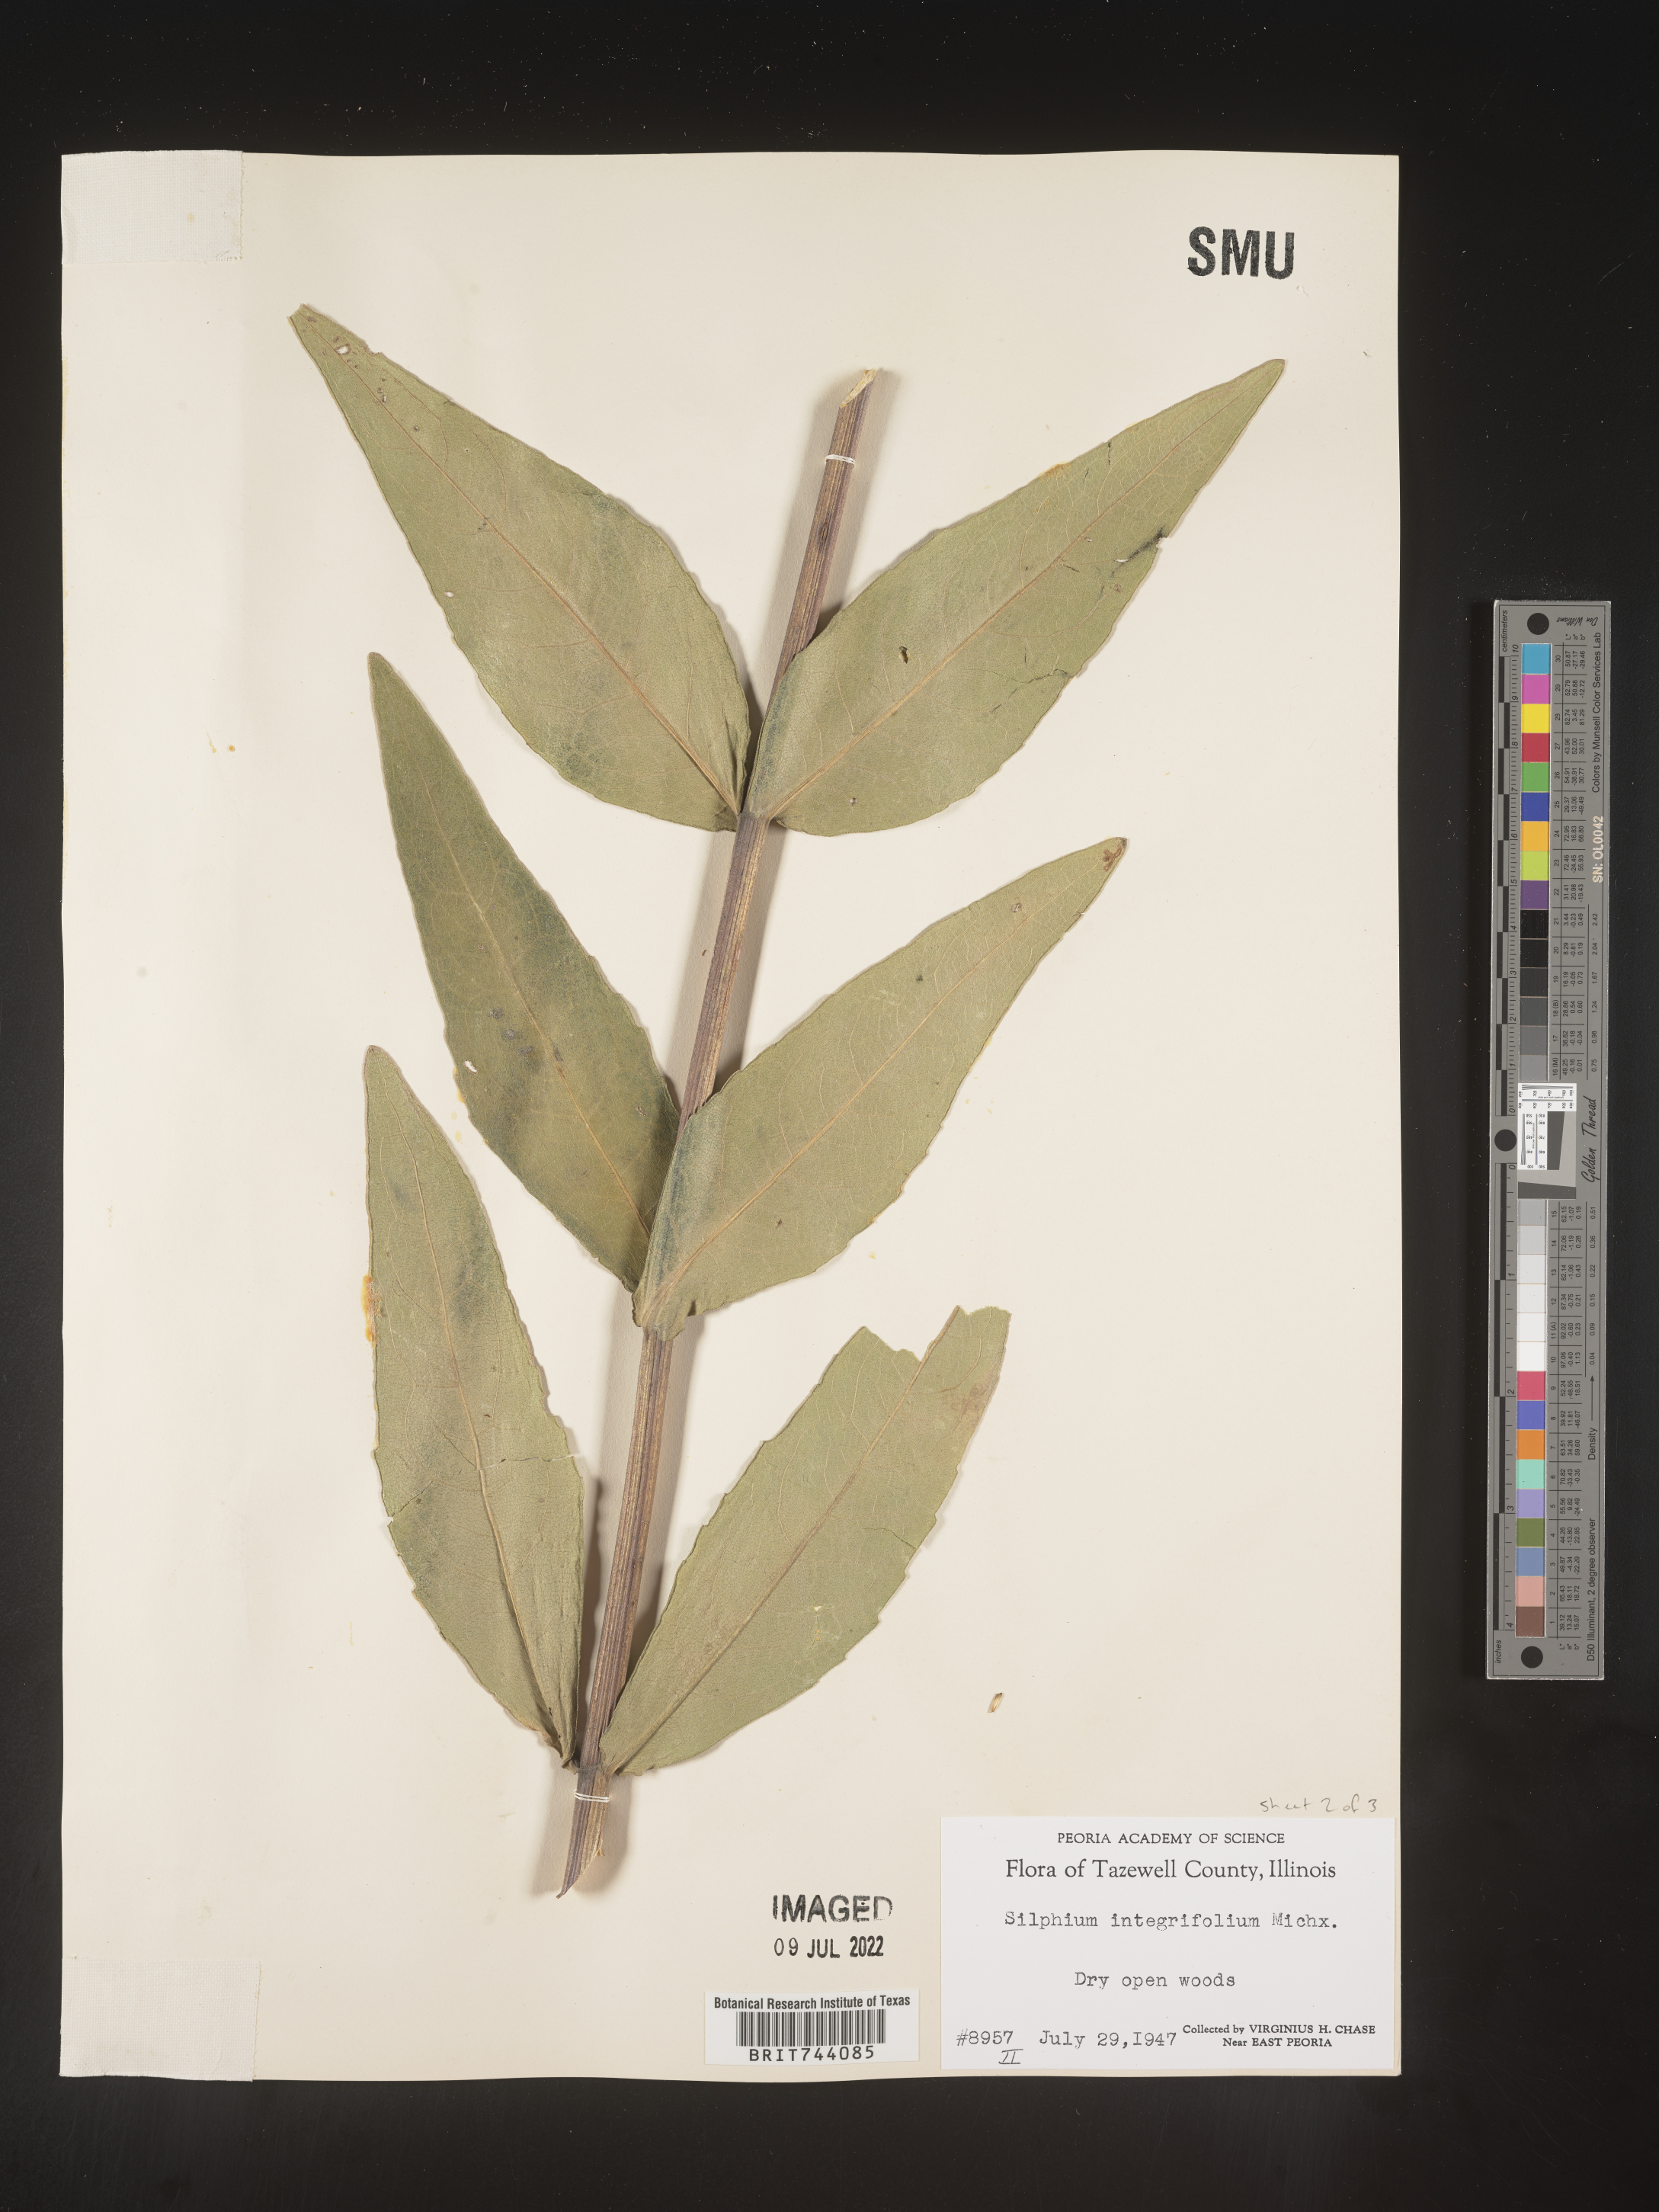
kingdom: Plantae
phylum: Tracheophyta
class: Magnoliopsida
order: Asterales
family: Asteraceae
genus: Silphium
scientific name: Silphium integrifolium
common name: Whole-leaf rosinweed
